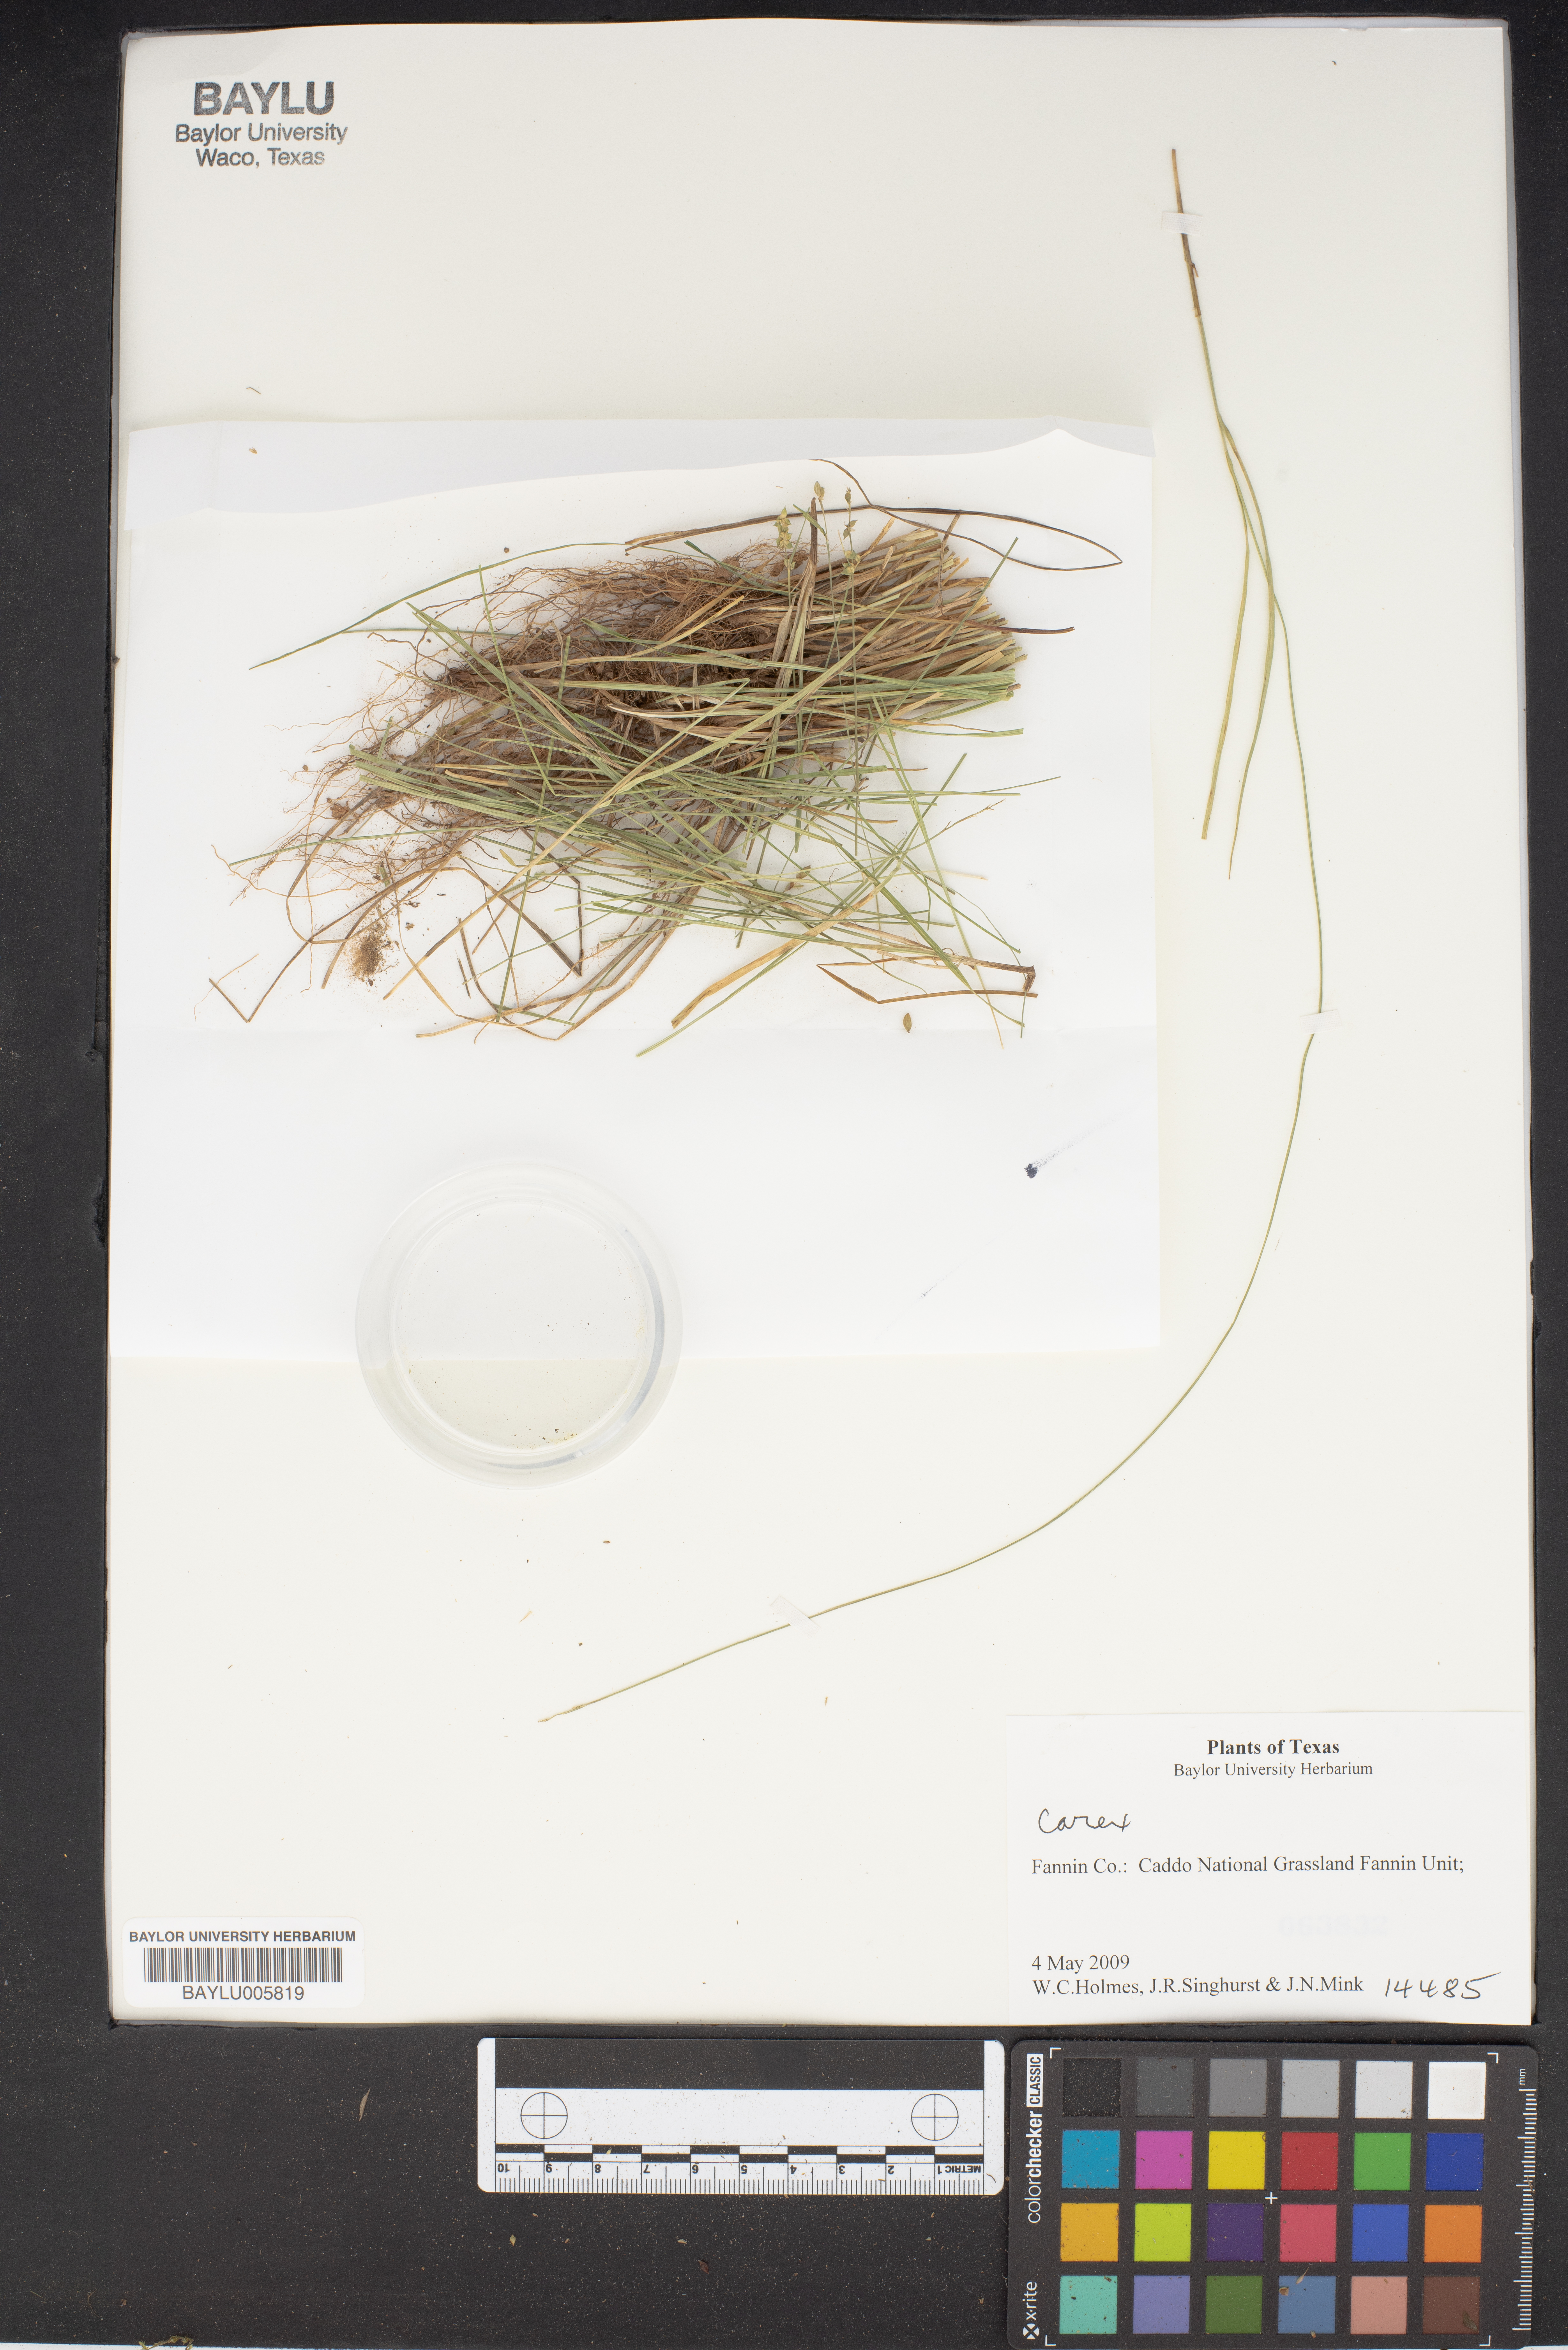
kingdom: Plantae
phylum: Tracheophyta
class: Liliopsida
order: Poales
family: Cyperaceae
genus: Carex
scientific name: Carex
